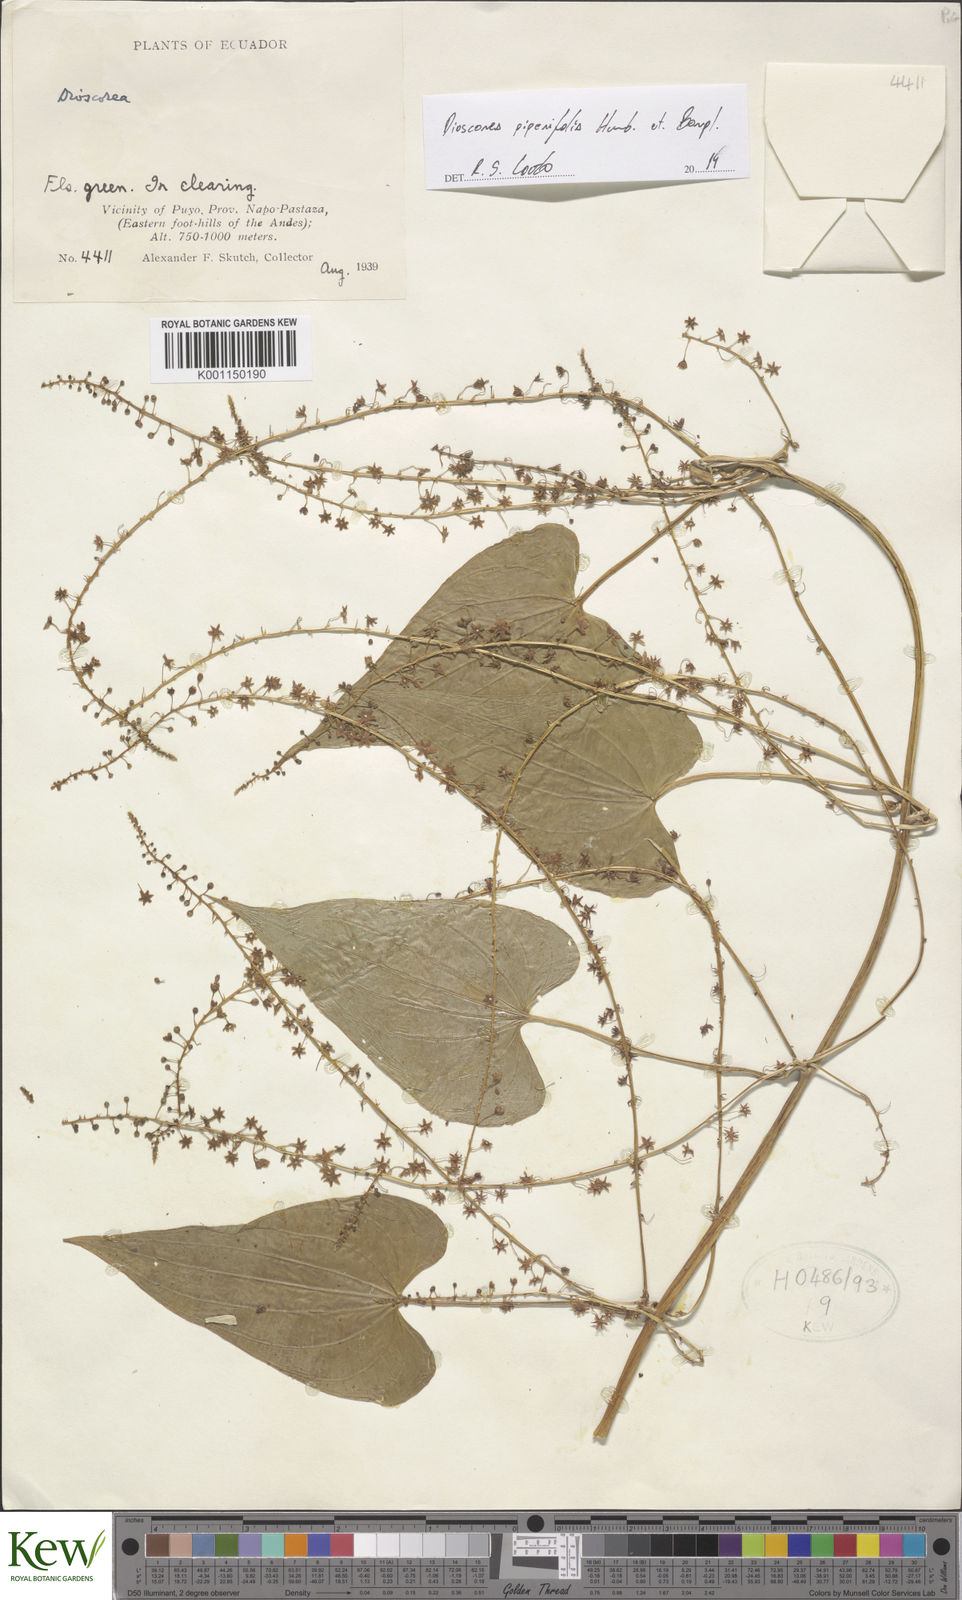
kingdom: Plantae
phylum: Tracheophyta
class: Liliopsida
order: Dioscoreales
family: Dioscoreaceae
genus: Dioscorea
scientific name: Dioscorea piperifolia
